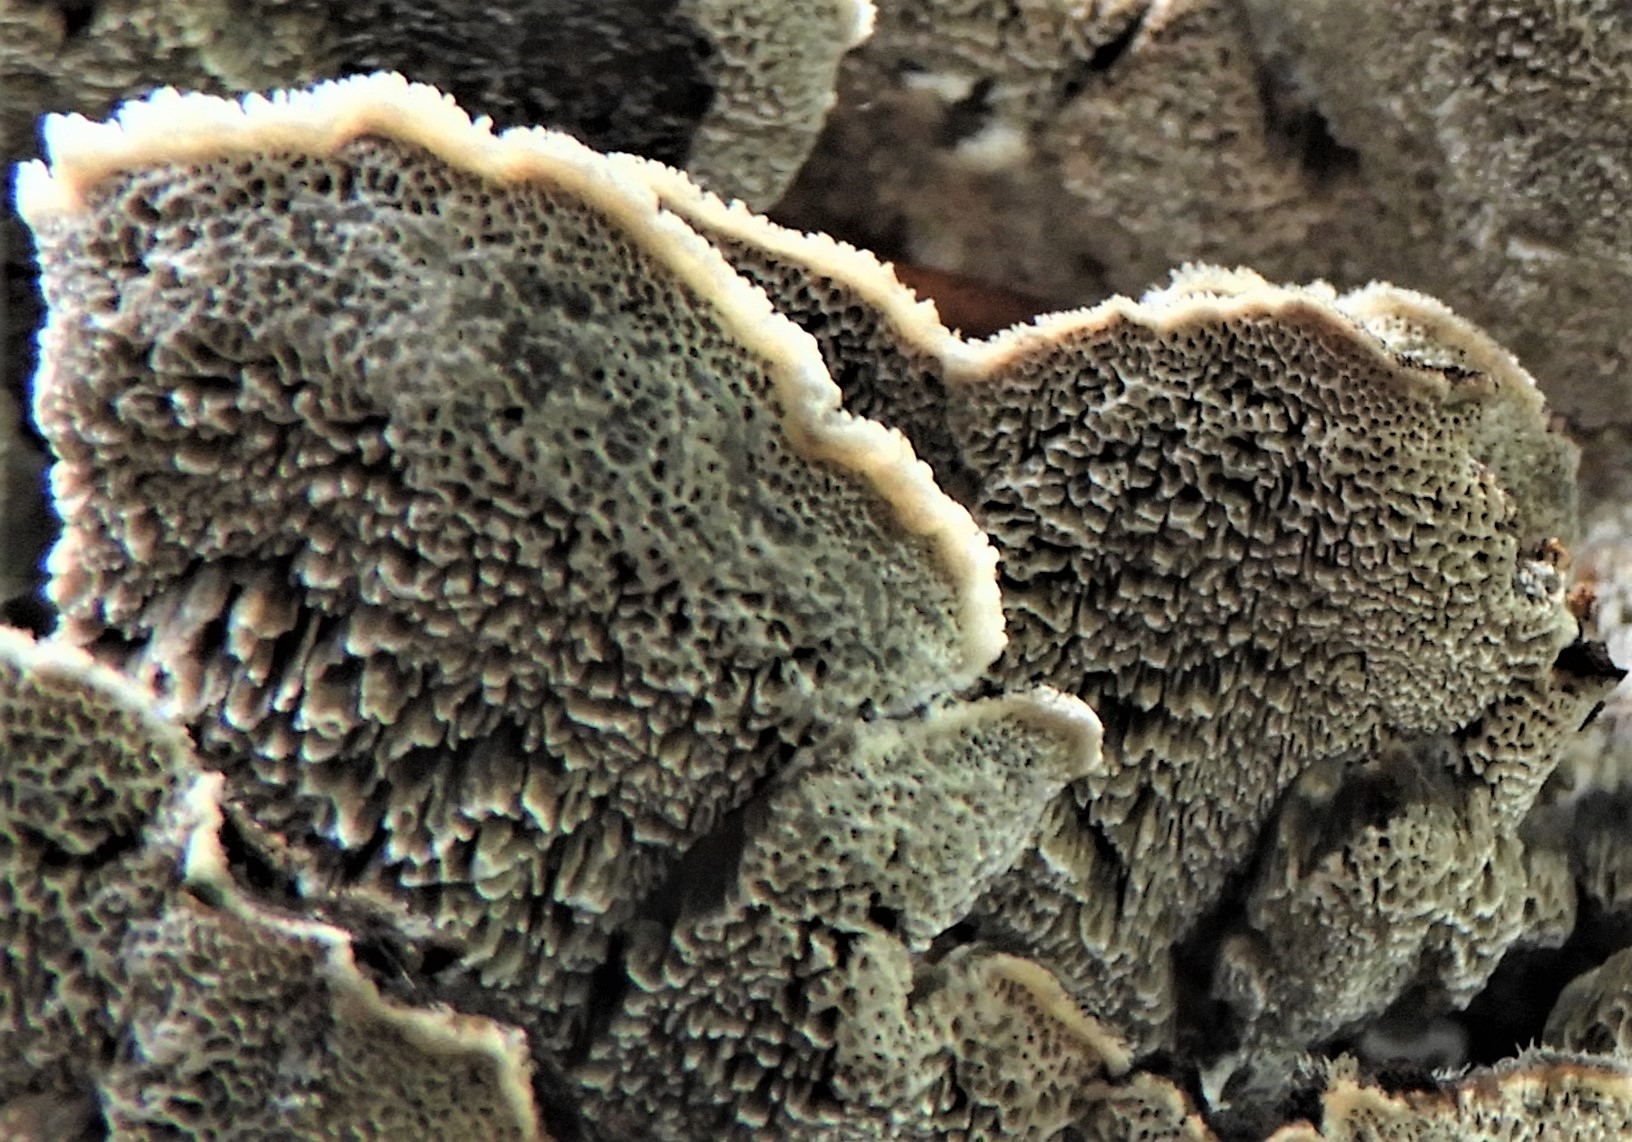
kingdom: Fungi
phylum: Basidiomycota
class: Agaricomycetes
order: Polyporales
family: Phanerochaetaceae
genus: Bjerkandera
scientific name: Bjerkandera adusta
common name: sveden sodporesvamp
